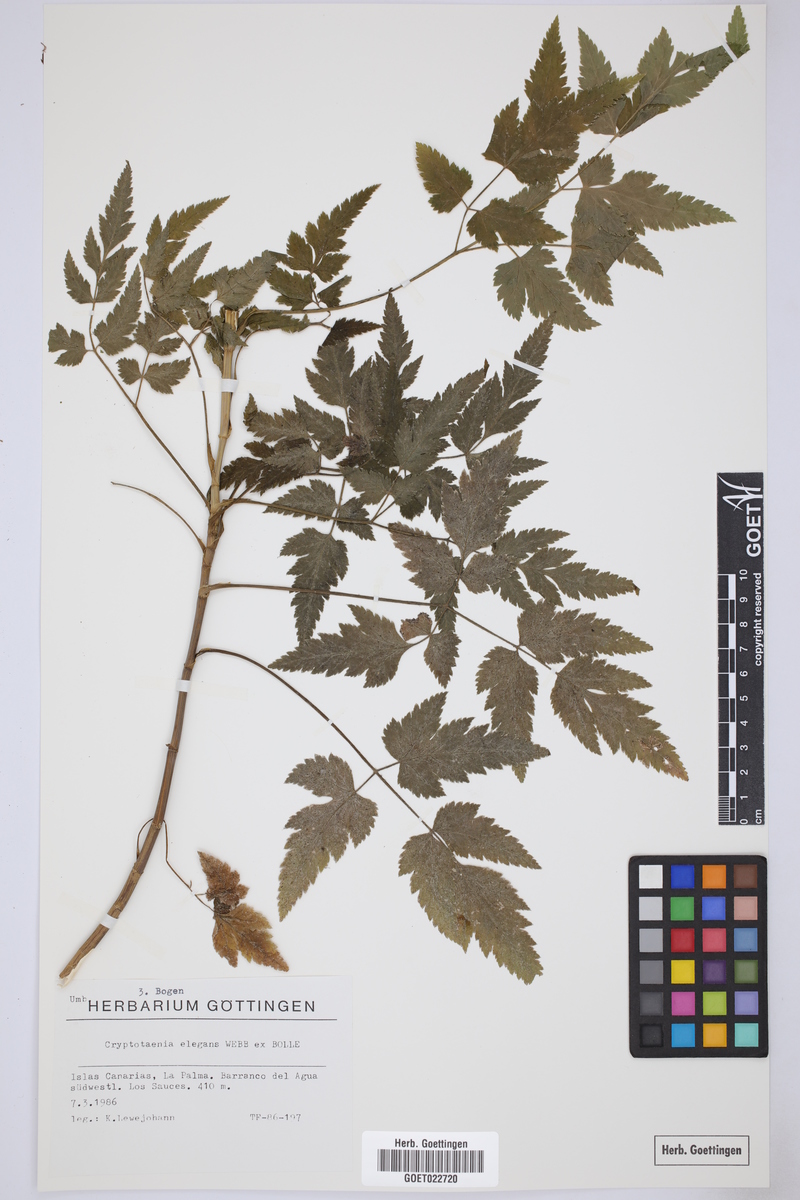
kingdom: Plantae
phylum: Tracheophyta
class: Magnoliopsida
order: Apiales
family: Apiaceae
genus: Daucus
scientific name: Daucus elegans
